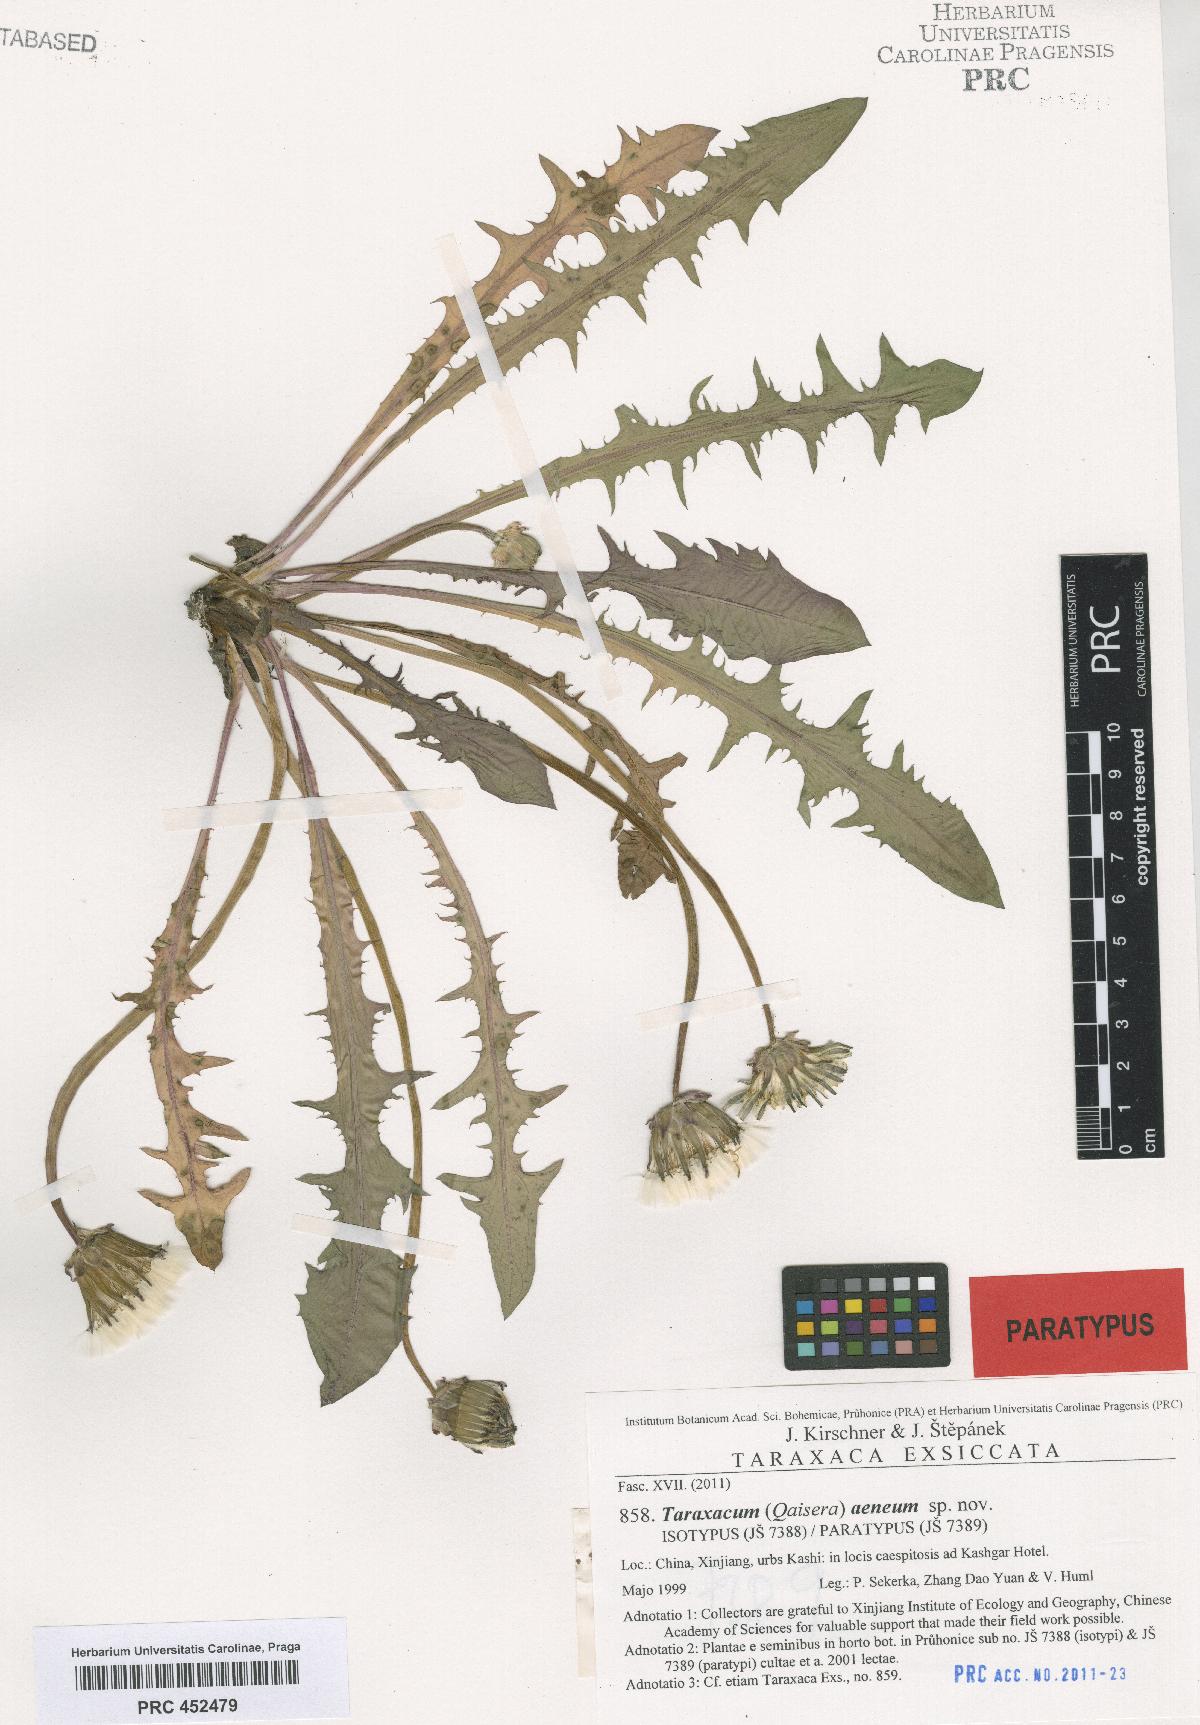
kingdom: Plantae
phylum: Tracheophyta
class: Magnoliopsida
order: Asterales
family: Asteraceae
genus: Taraxacum
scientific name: Taraxacum aeneum
